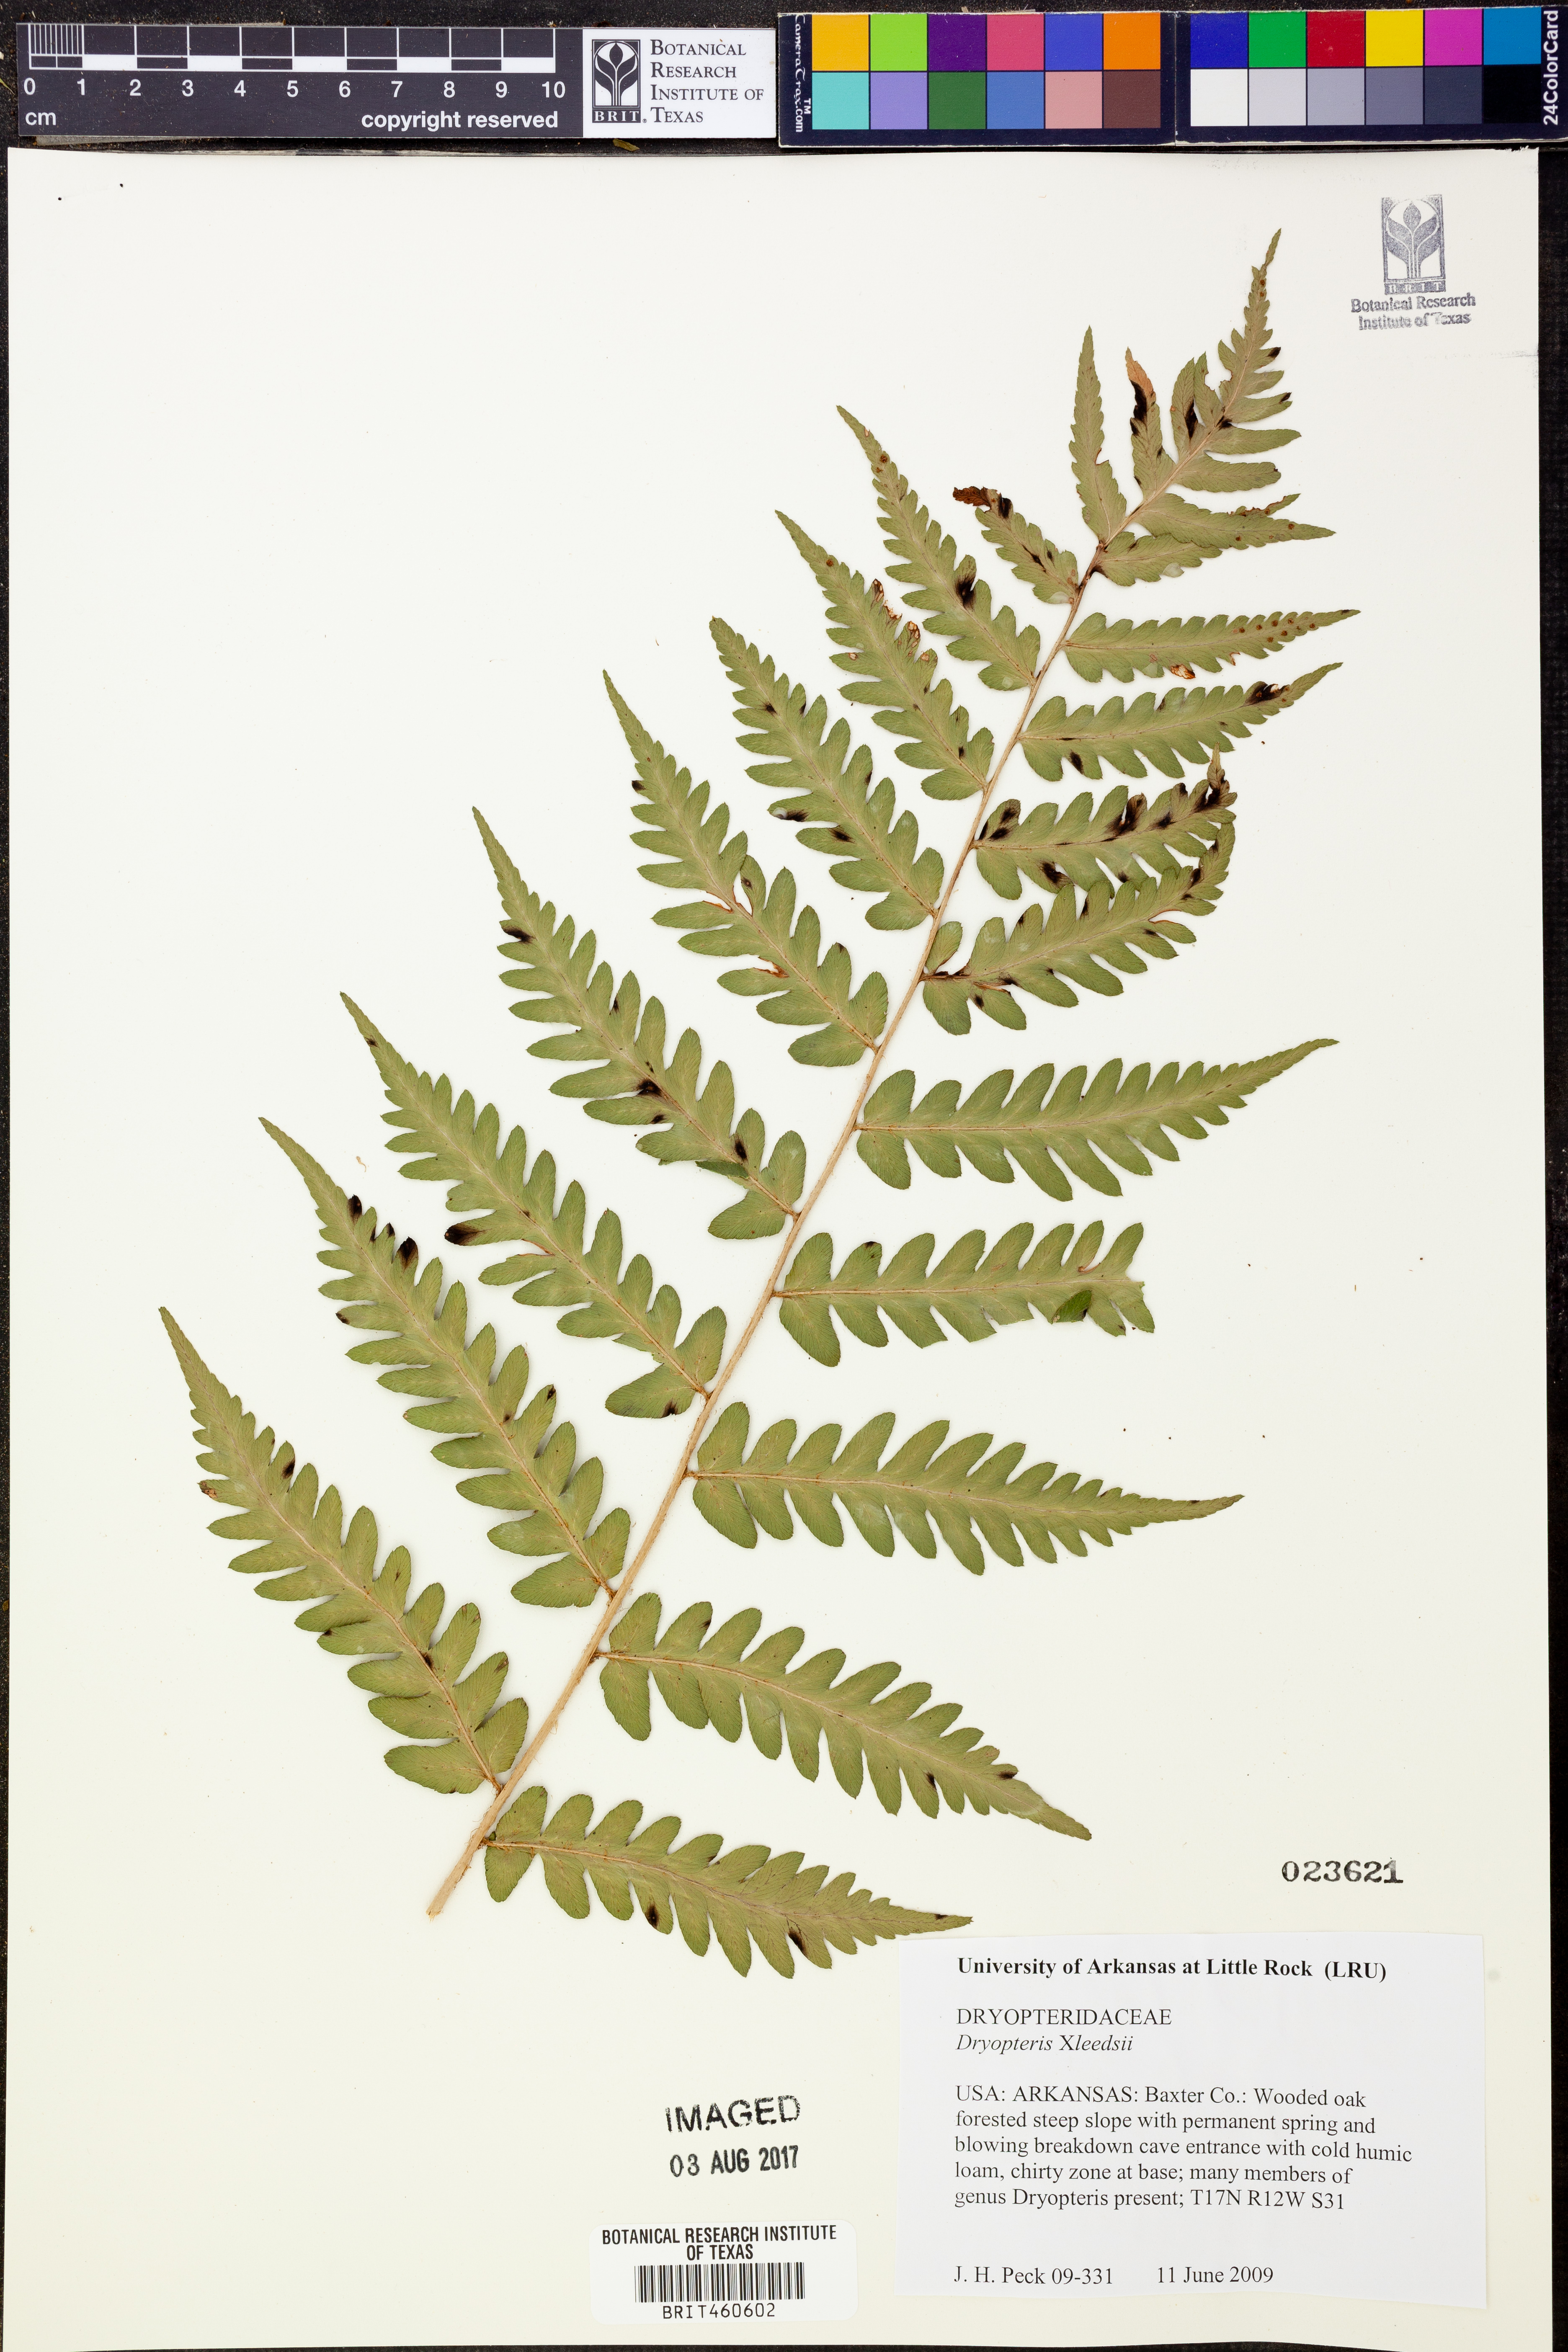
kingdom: Plantae
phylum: Tracheophyta
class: Polypodiopsida
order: Polypodiales
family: Dryopteridaceae
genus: Dryopteris
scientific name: Dryopteris
